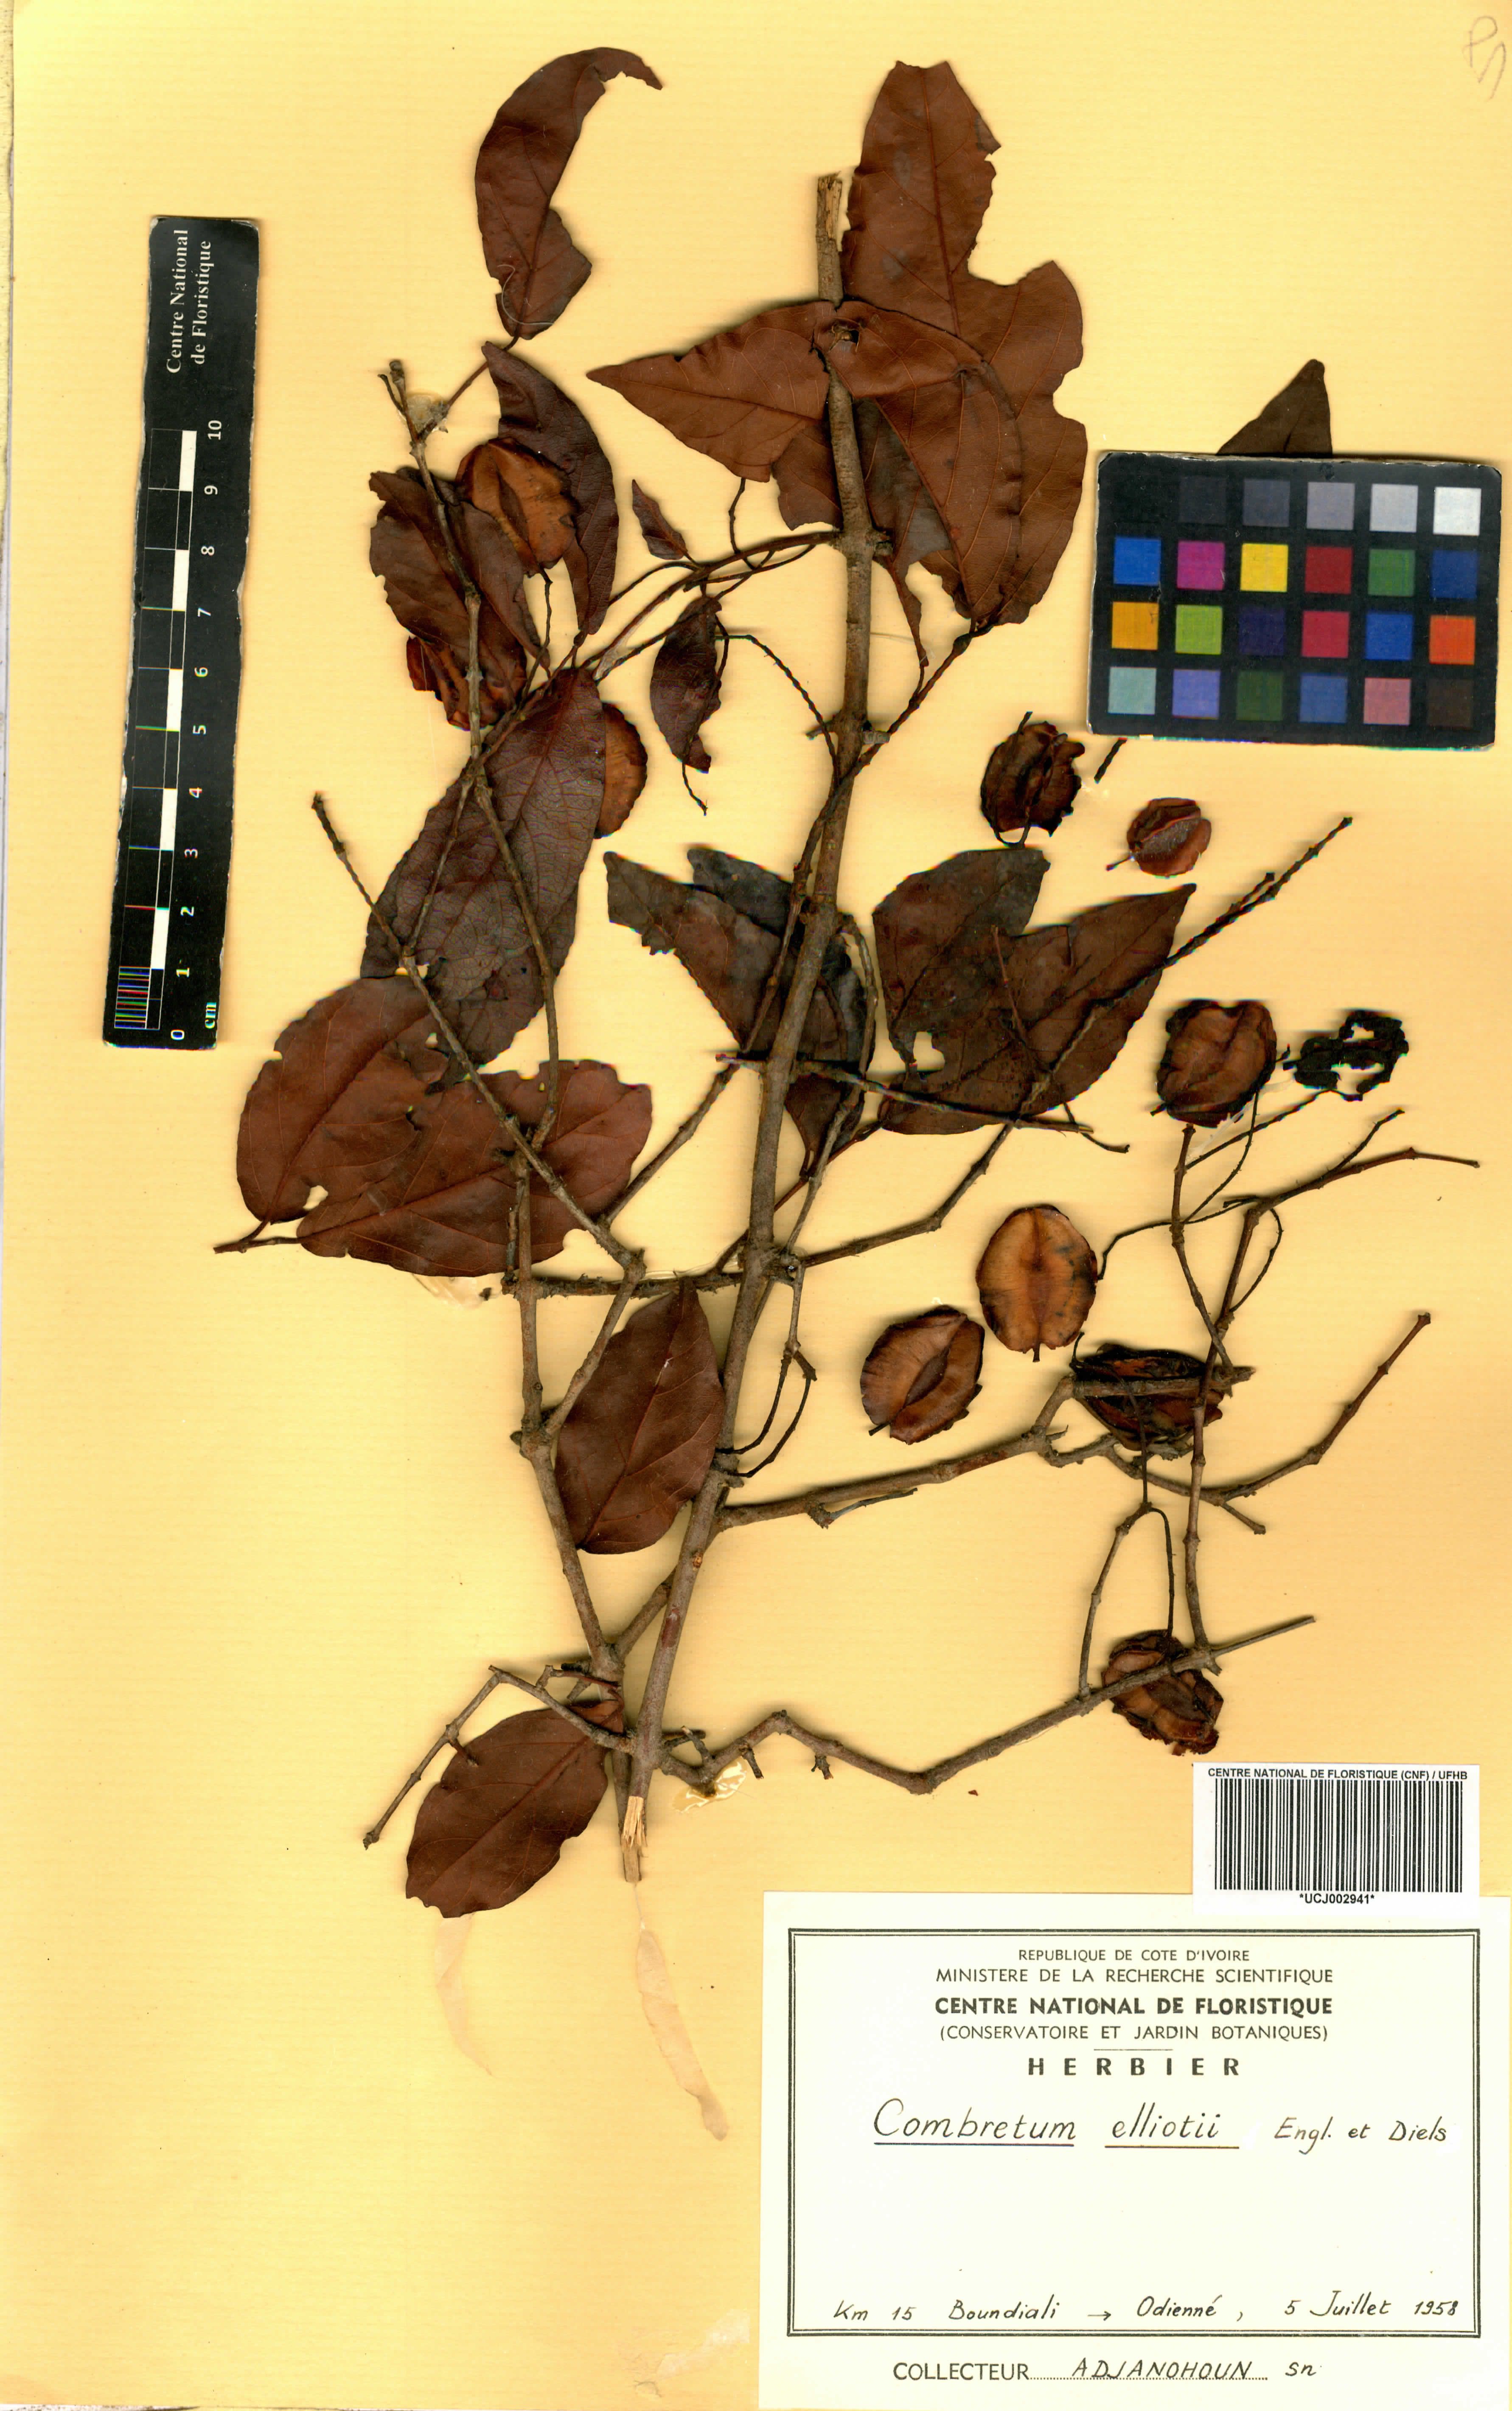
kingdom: Plantae
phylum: Tracheophyta
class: Magnoliopsida
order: Myrtales
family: Combretaceae
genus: Combretum
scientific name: Combretum nigricans
